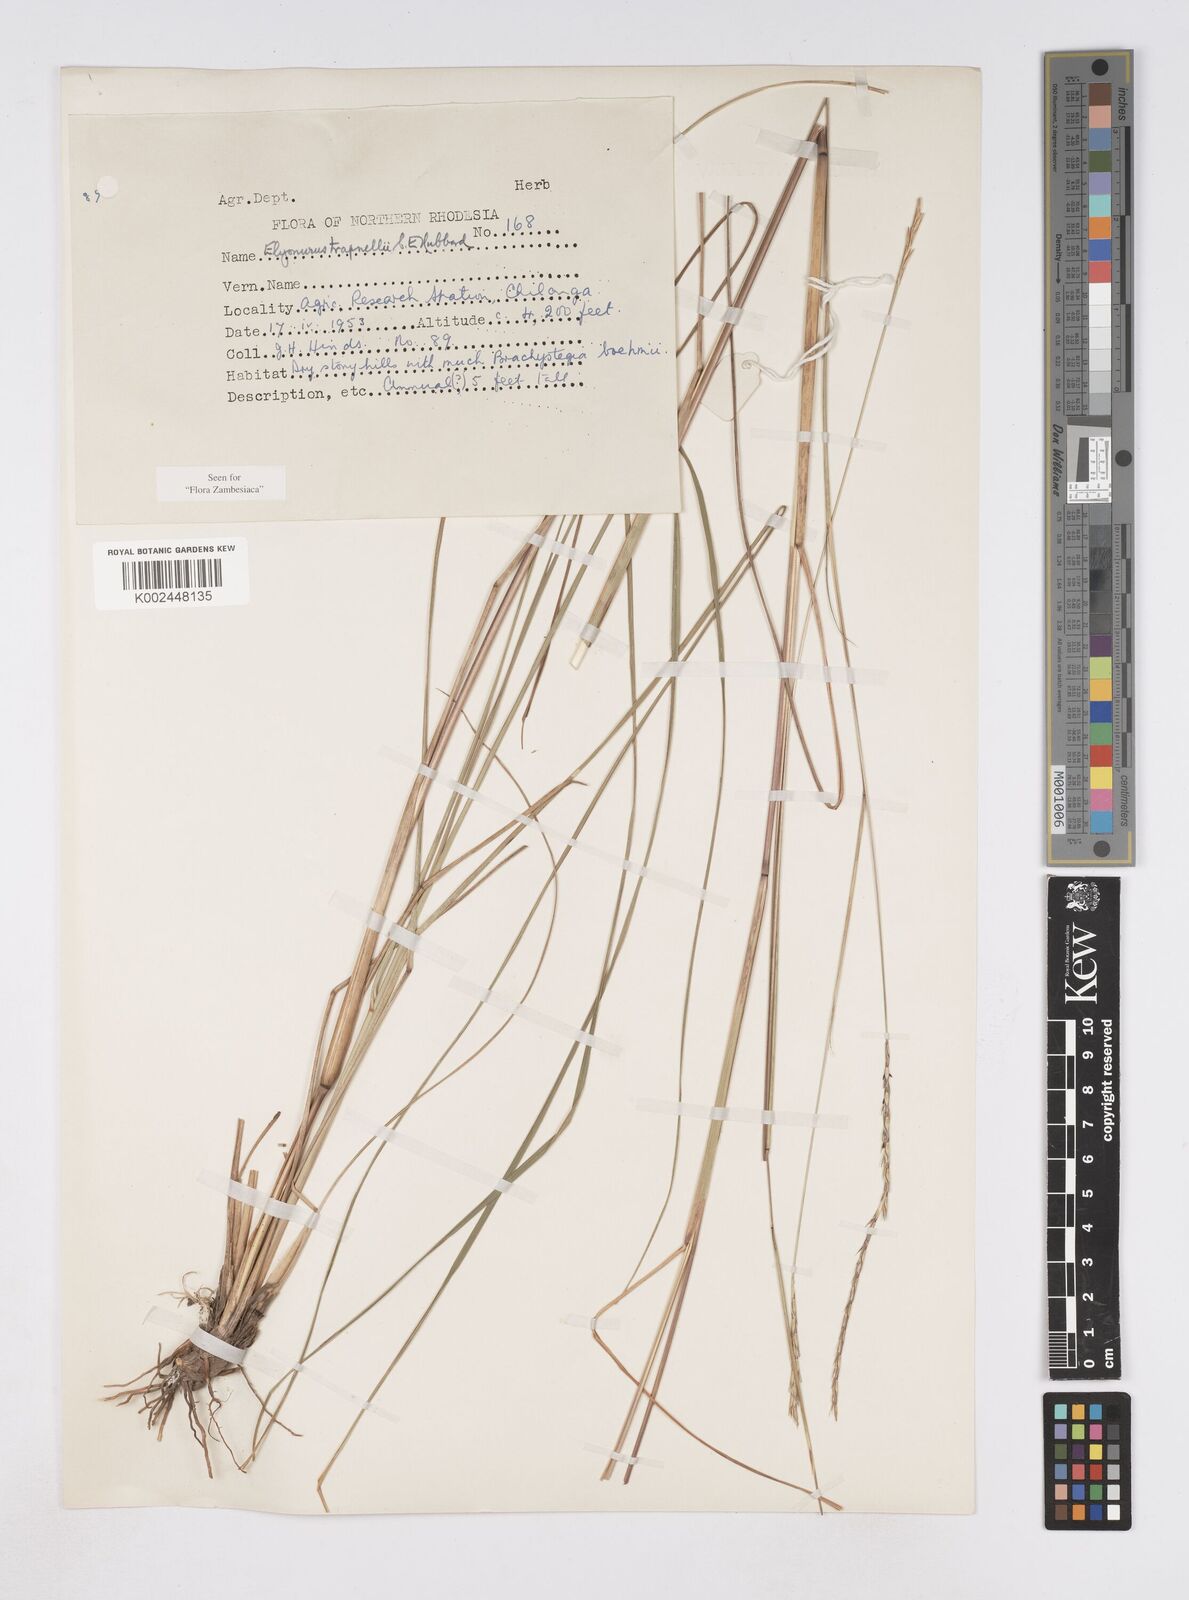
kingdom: Plantae
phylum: Tracheophyta
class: Liliopsida
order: Poales
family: Poaceae
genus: Elionurus
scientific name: Elionurus tripsacoides
